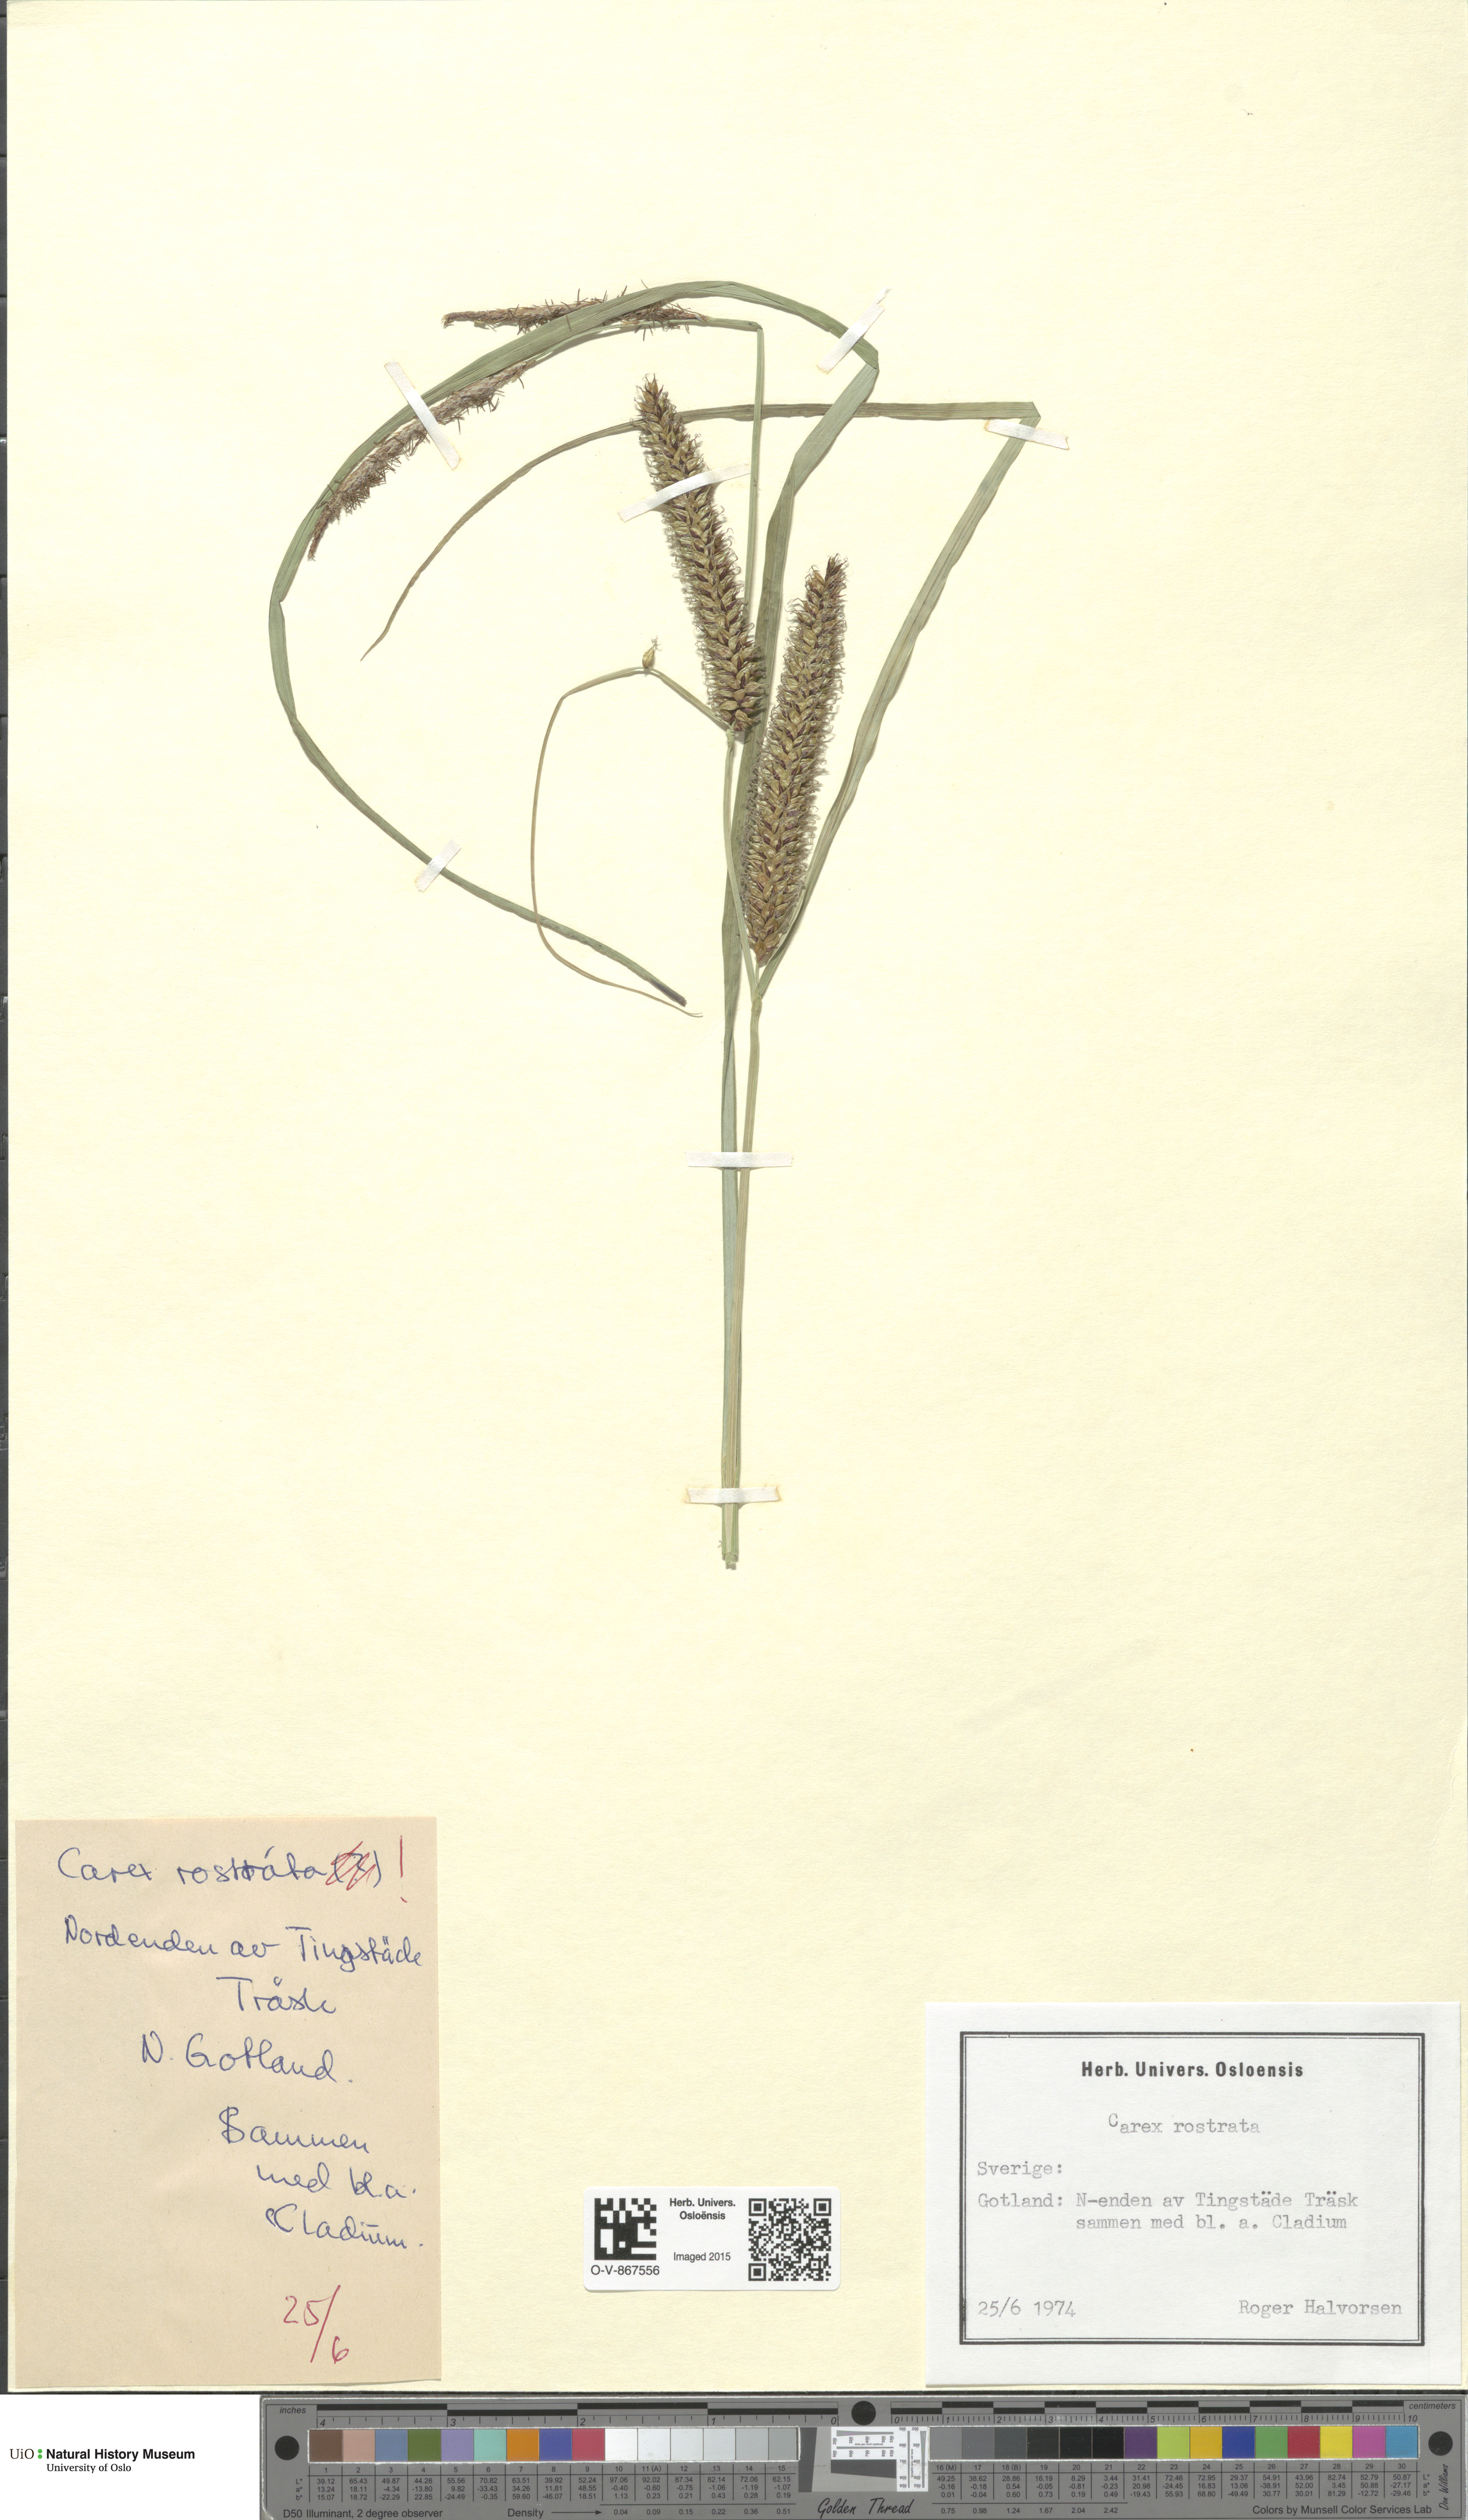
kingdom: Plantae
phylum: Tracheophyta
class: Liliopsida
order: Poales
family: Cyperaceae
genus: Carex
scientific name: Carex rostrata
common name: Bottle sedge
